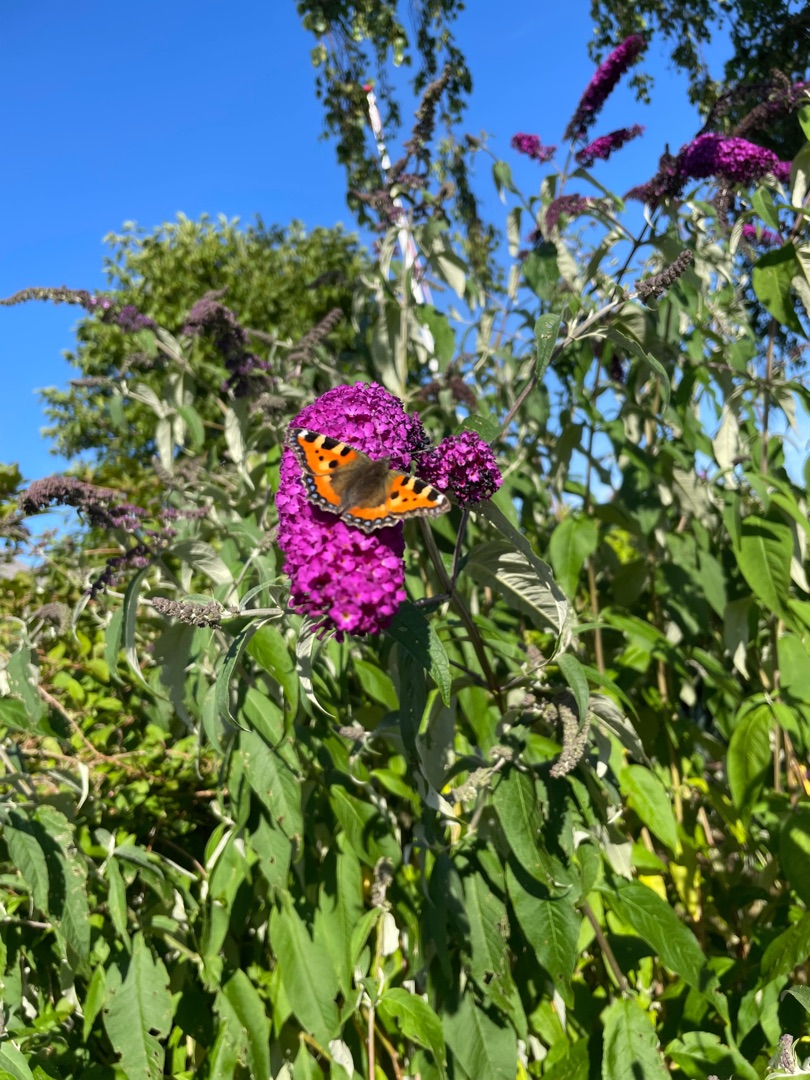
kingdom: Animalia
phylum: Arthropoda
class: Insecta
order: Lepidoptera
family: Nymphalidae
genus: Aglais
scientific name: Aglais urticae
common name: Nældens takvinge
